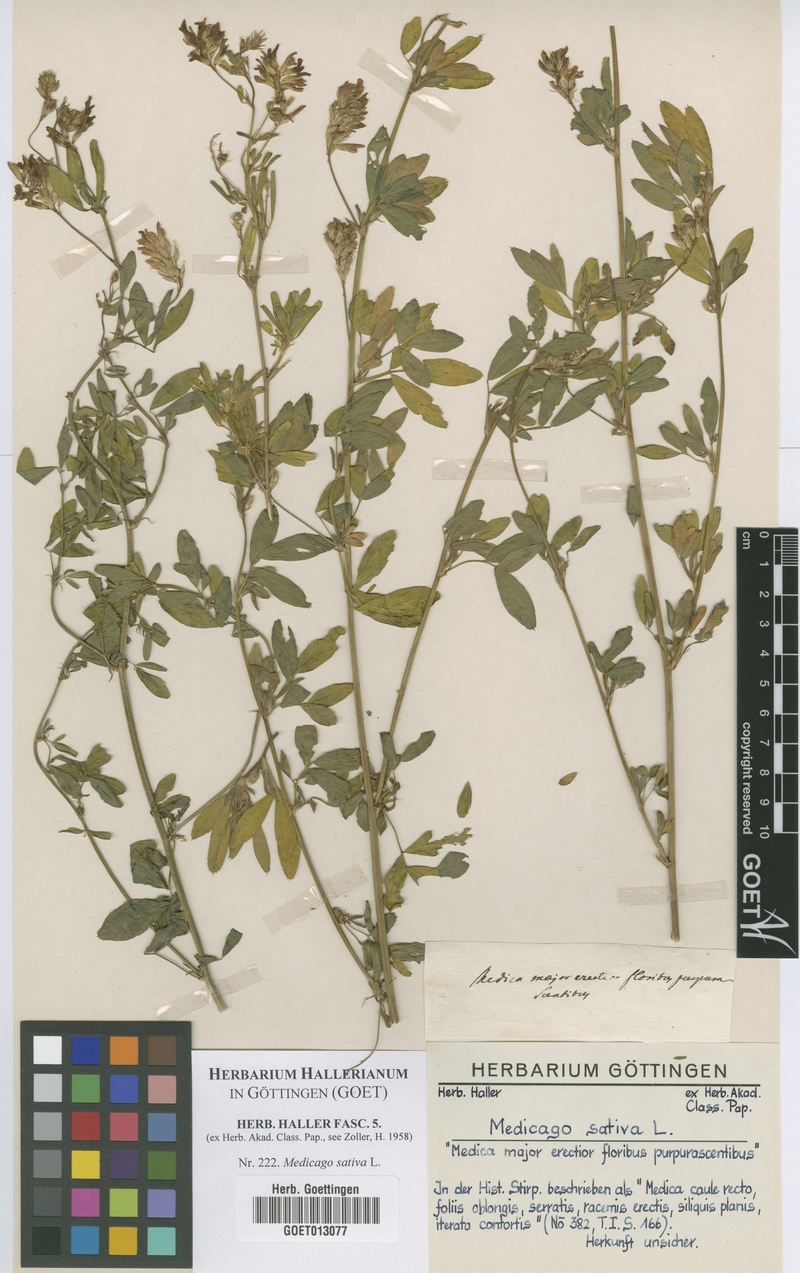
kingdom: Plantae
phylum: Tracheophyta
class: Magnoliopsida
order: Fabales
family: Fabaceae
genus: Medicago
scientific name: Medicago sativa
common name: Alfalfa
